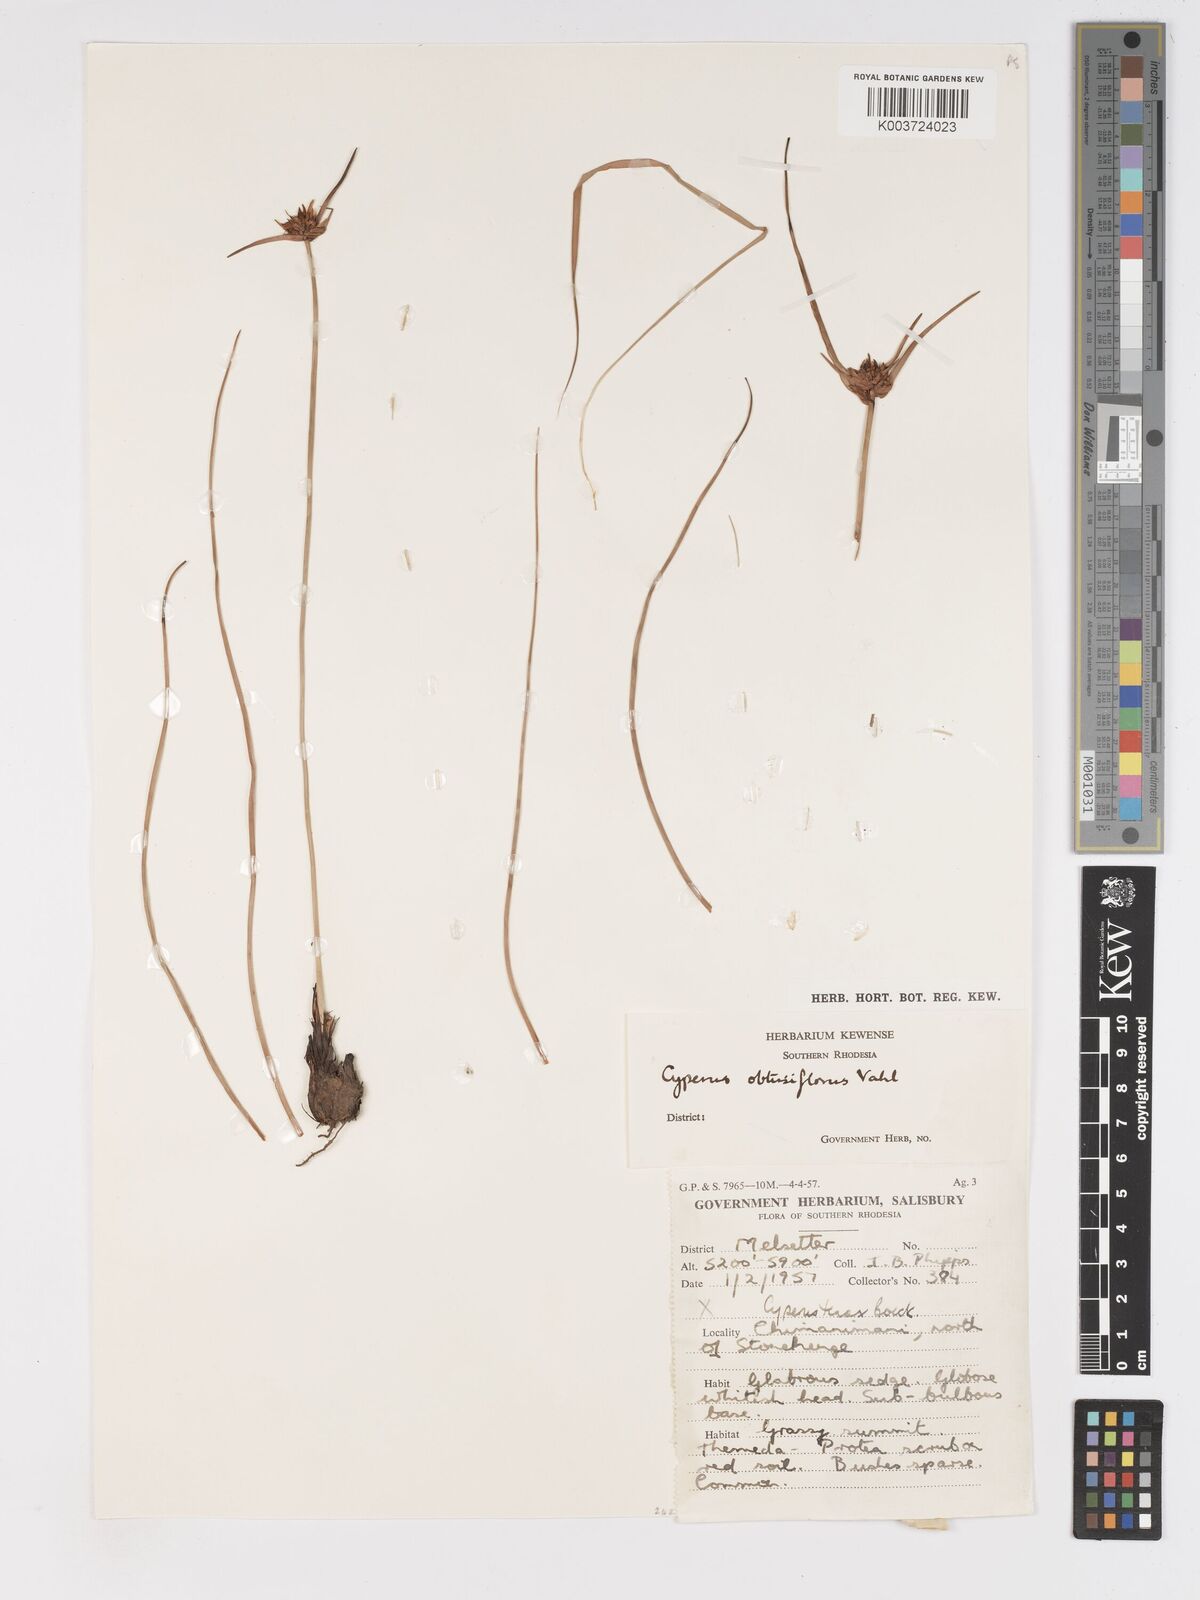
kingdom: Plantae
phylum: Tracheophyta
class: Liliopsida
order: Poales
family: Cyperaceae
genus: Cyperus
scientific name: Cyperus niveus
